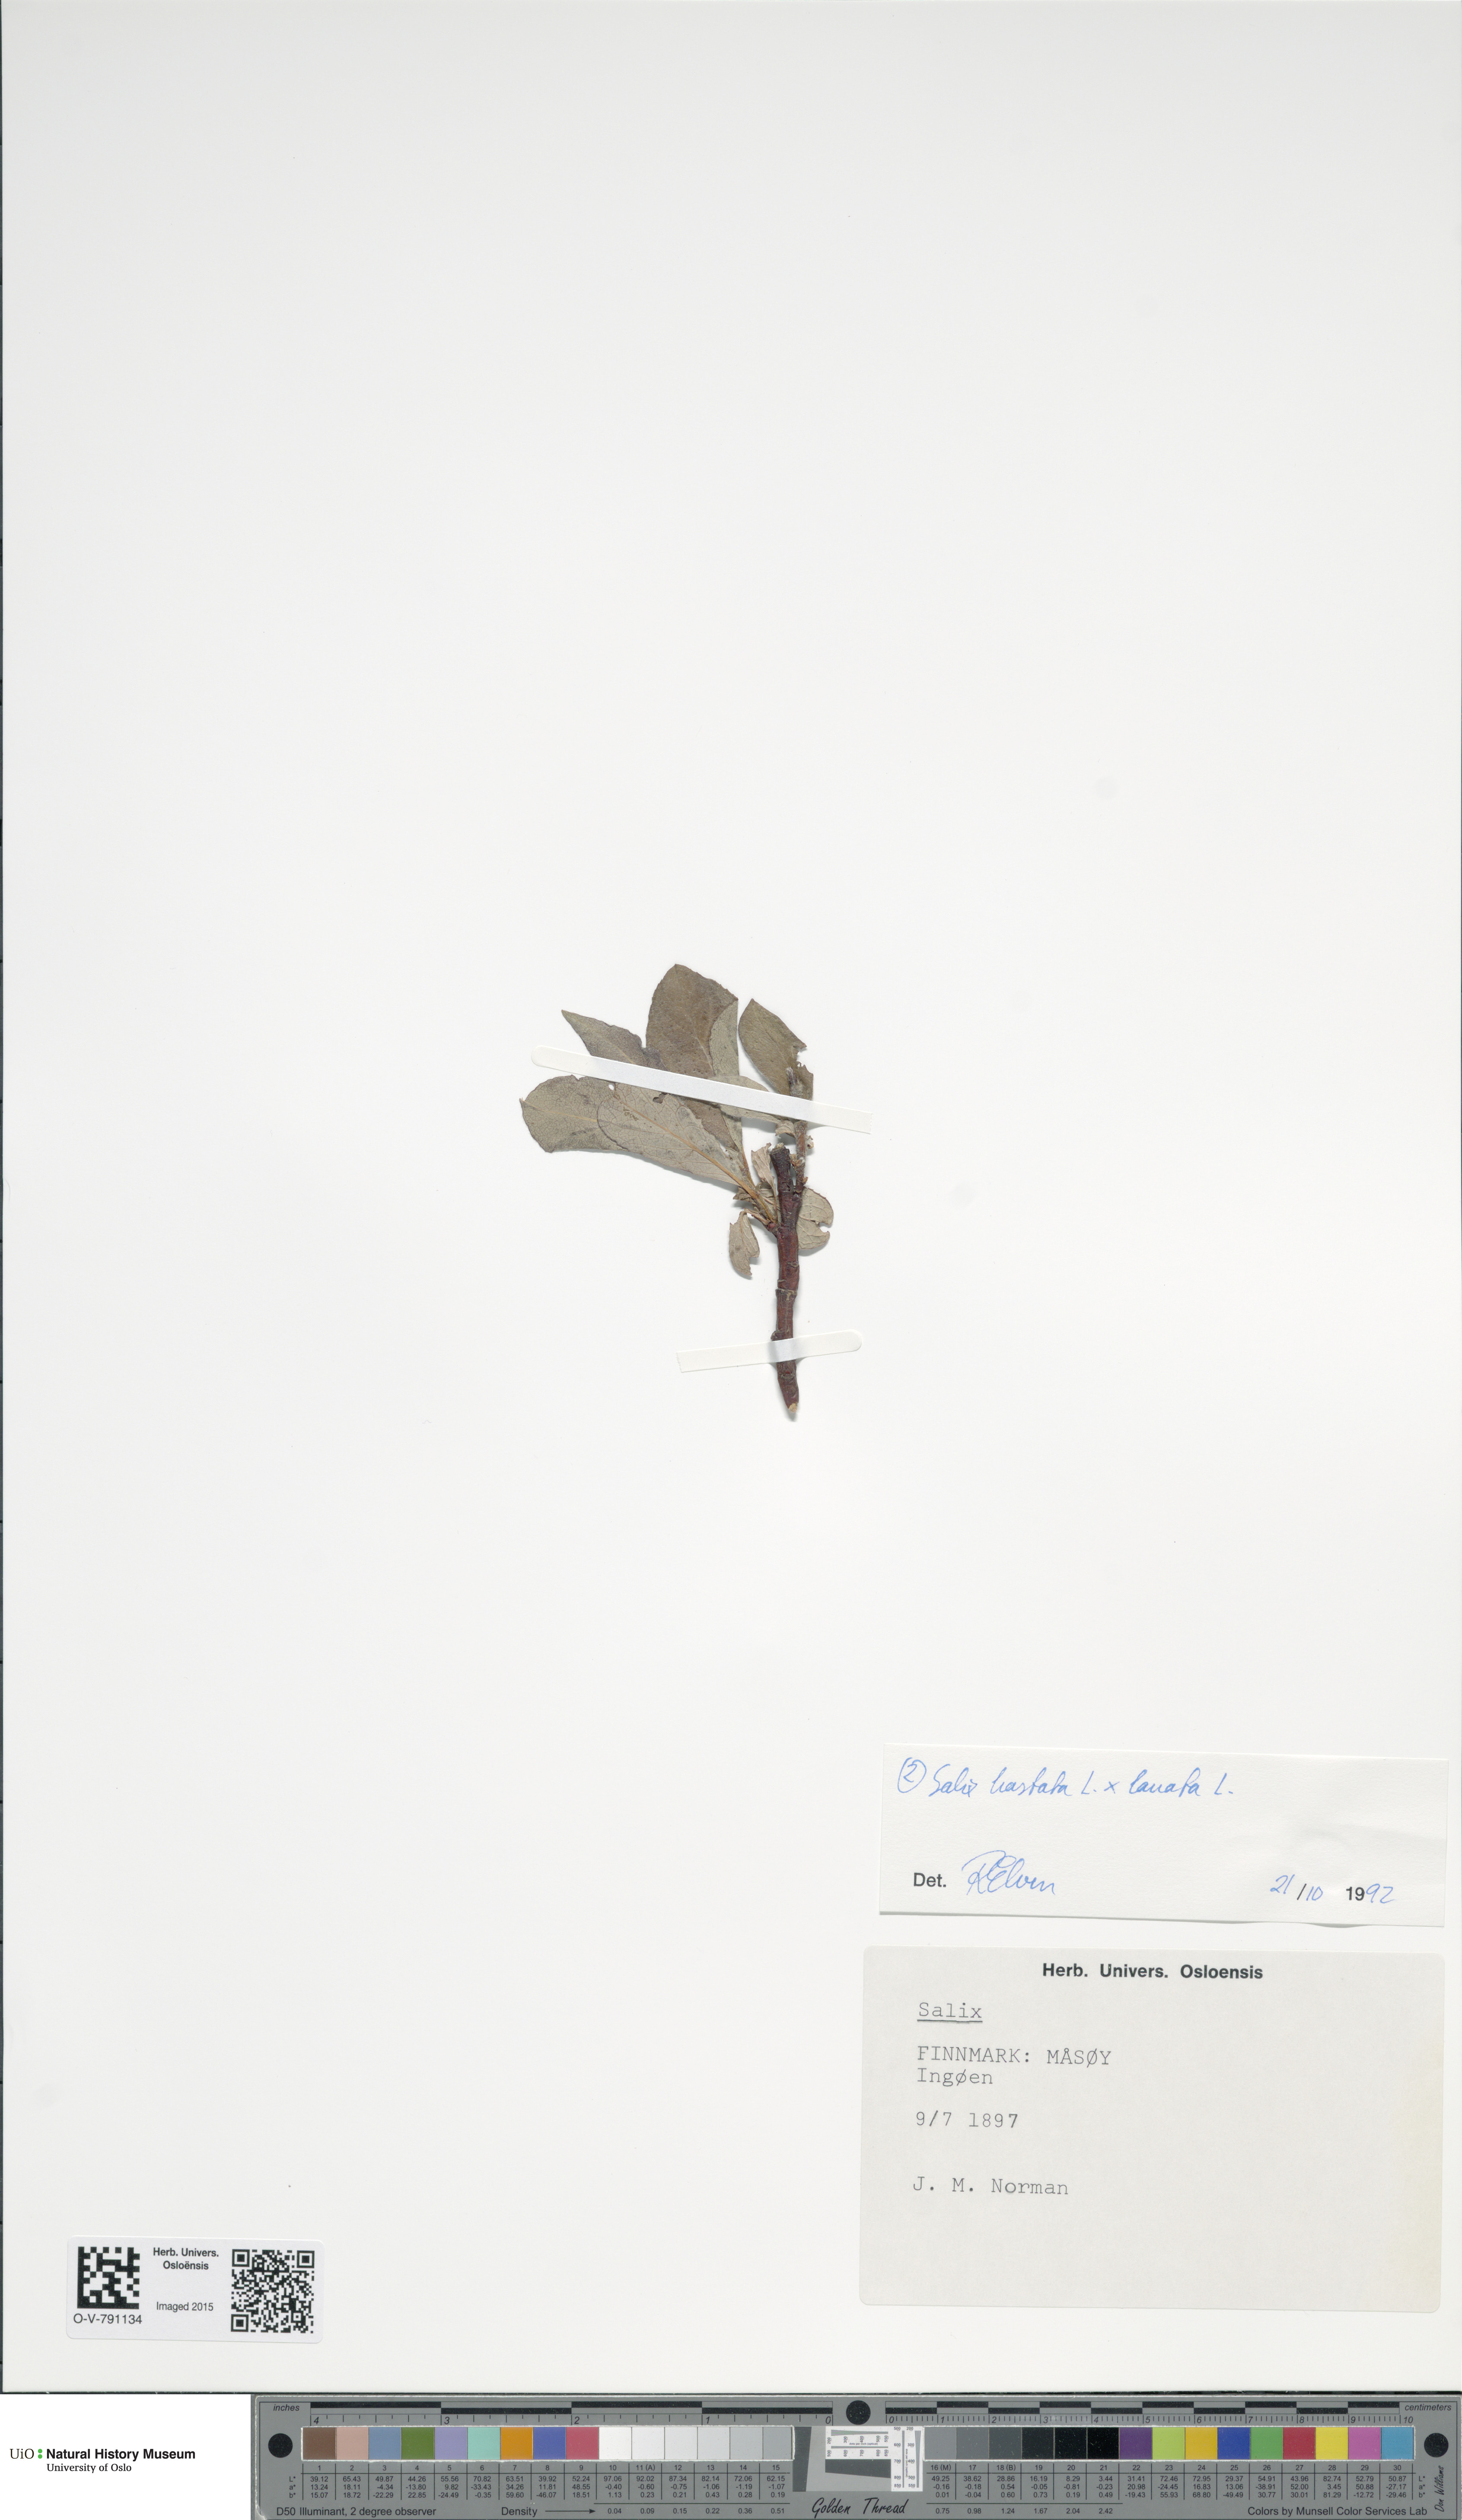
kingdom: Plantae
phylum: Tracheophyta
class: Magnoliopsida
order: Malpighiales
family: Salicaceae
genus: Salix
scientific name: Salix
